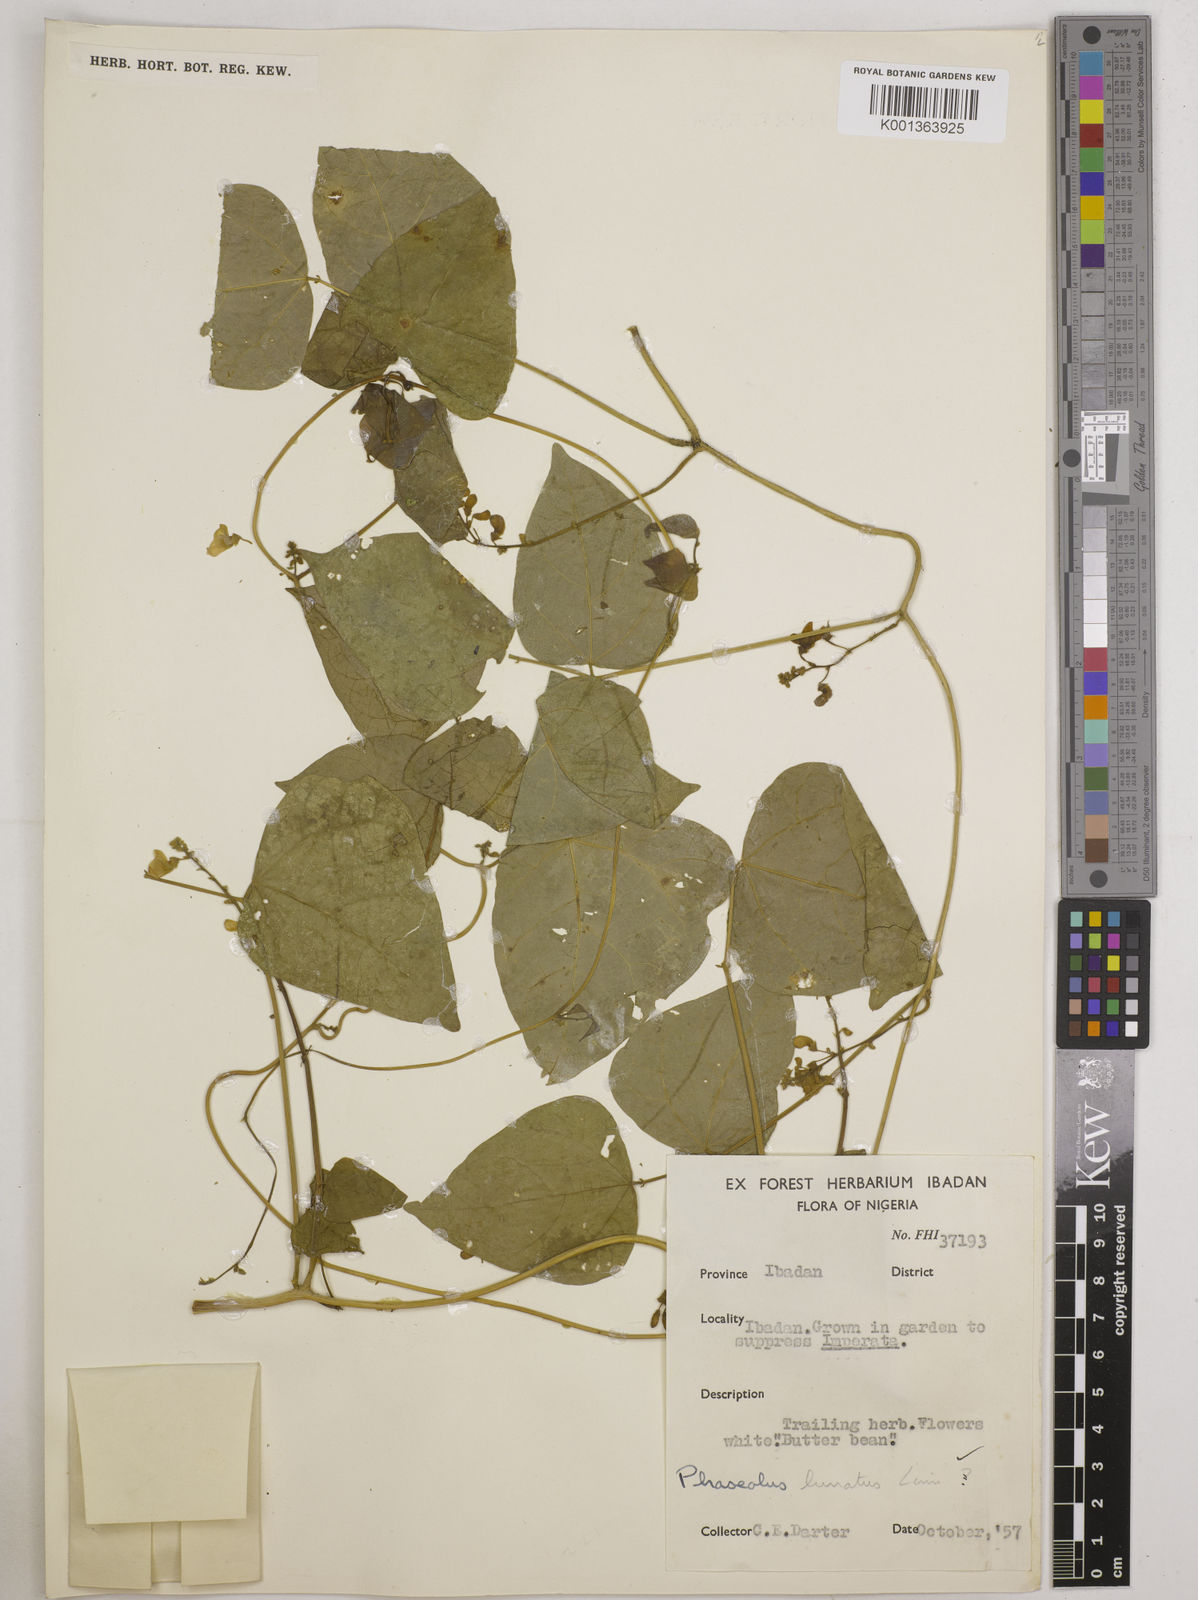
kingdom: Plantae
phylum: Tracheophyta
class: Magnoliopsida
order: Fabales
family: Fabaceae
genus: Phaseolus
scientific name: Phaseolus lunatus
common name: Sieva bean
